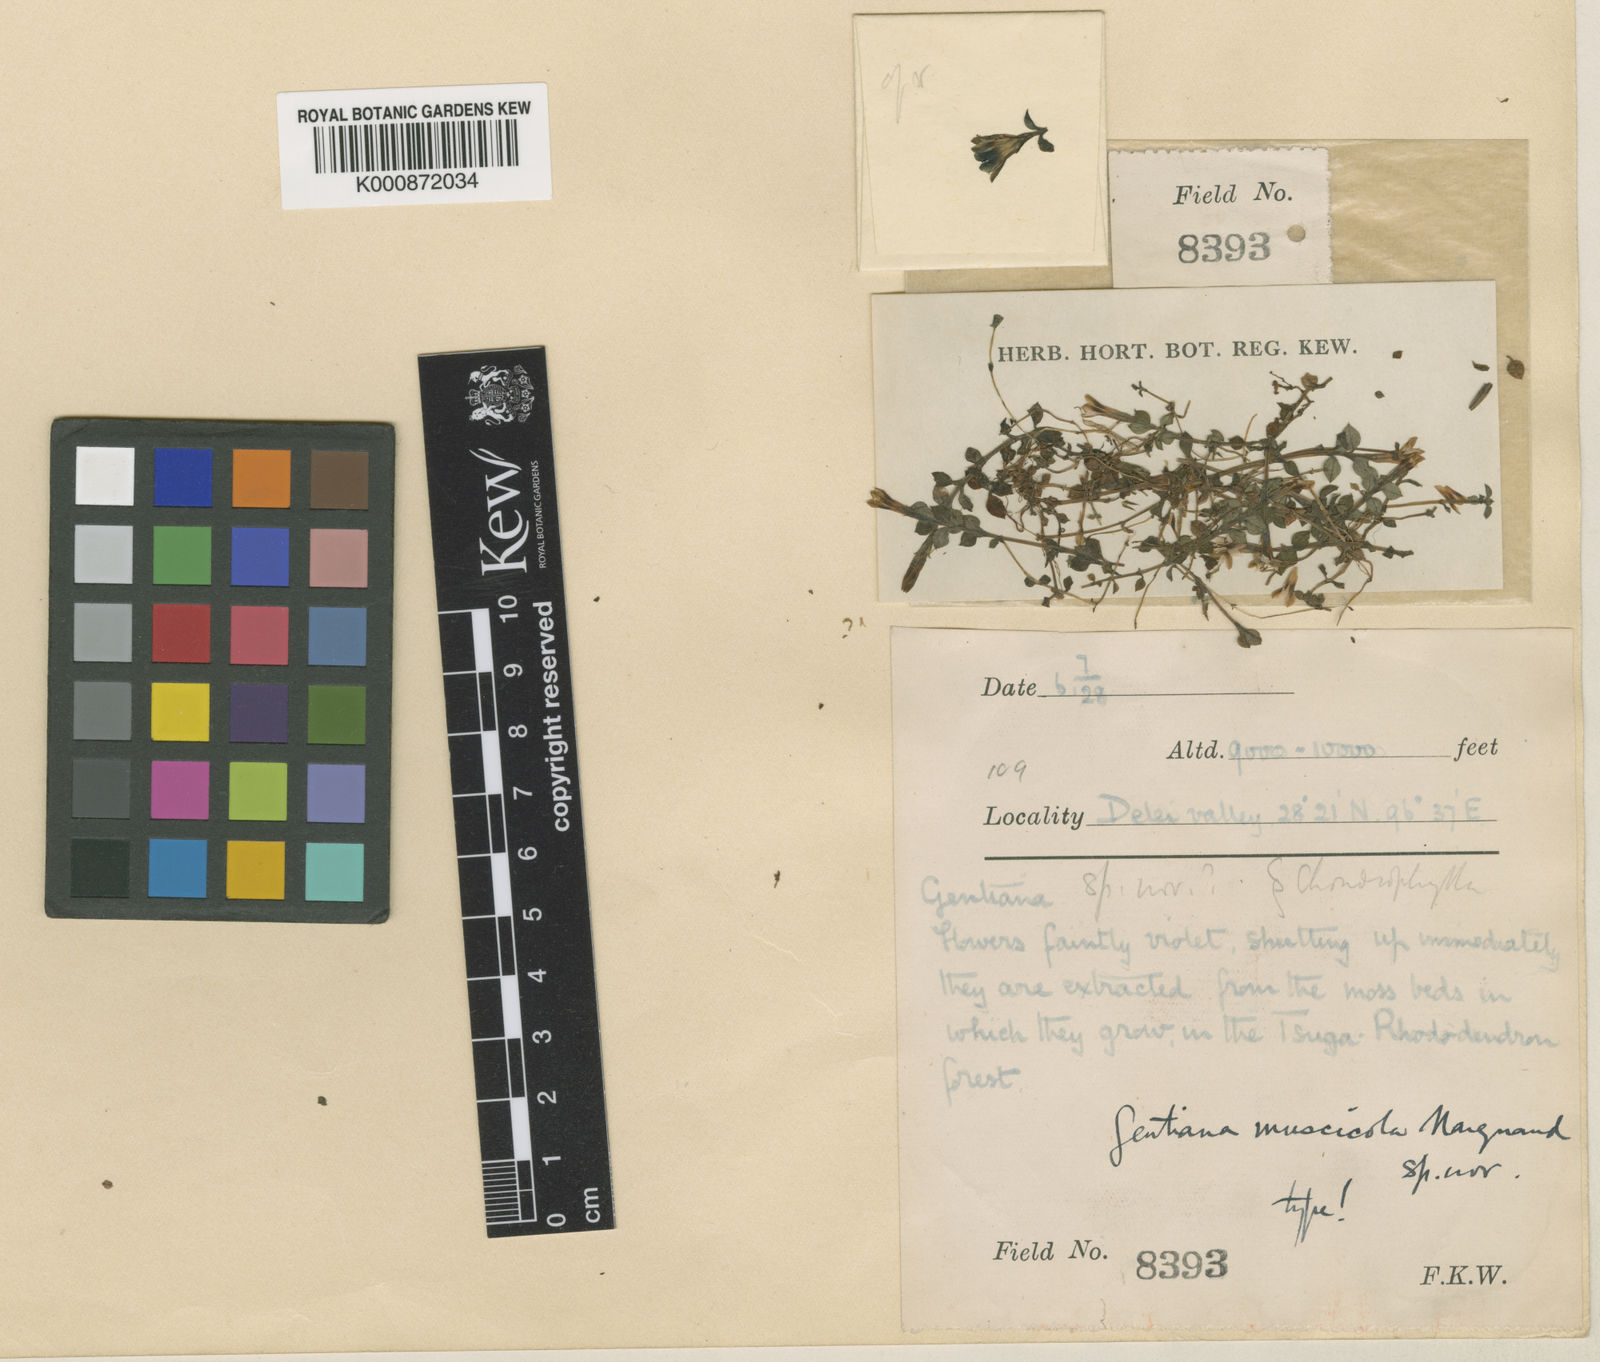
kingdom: Plantae
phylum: Tracheophyta
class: Magnoliopsida
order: Gentianales
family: Gentianaceae
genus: Gentiana
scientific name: Gentiana muscicola
